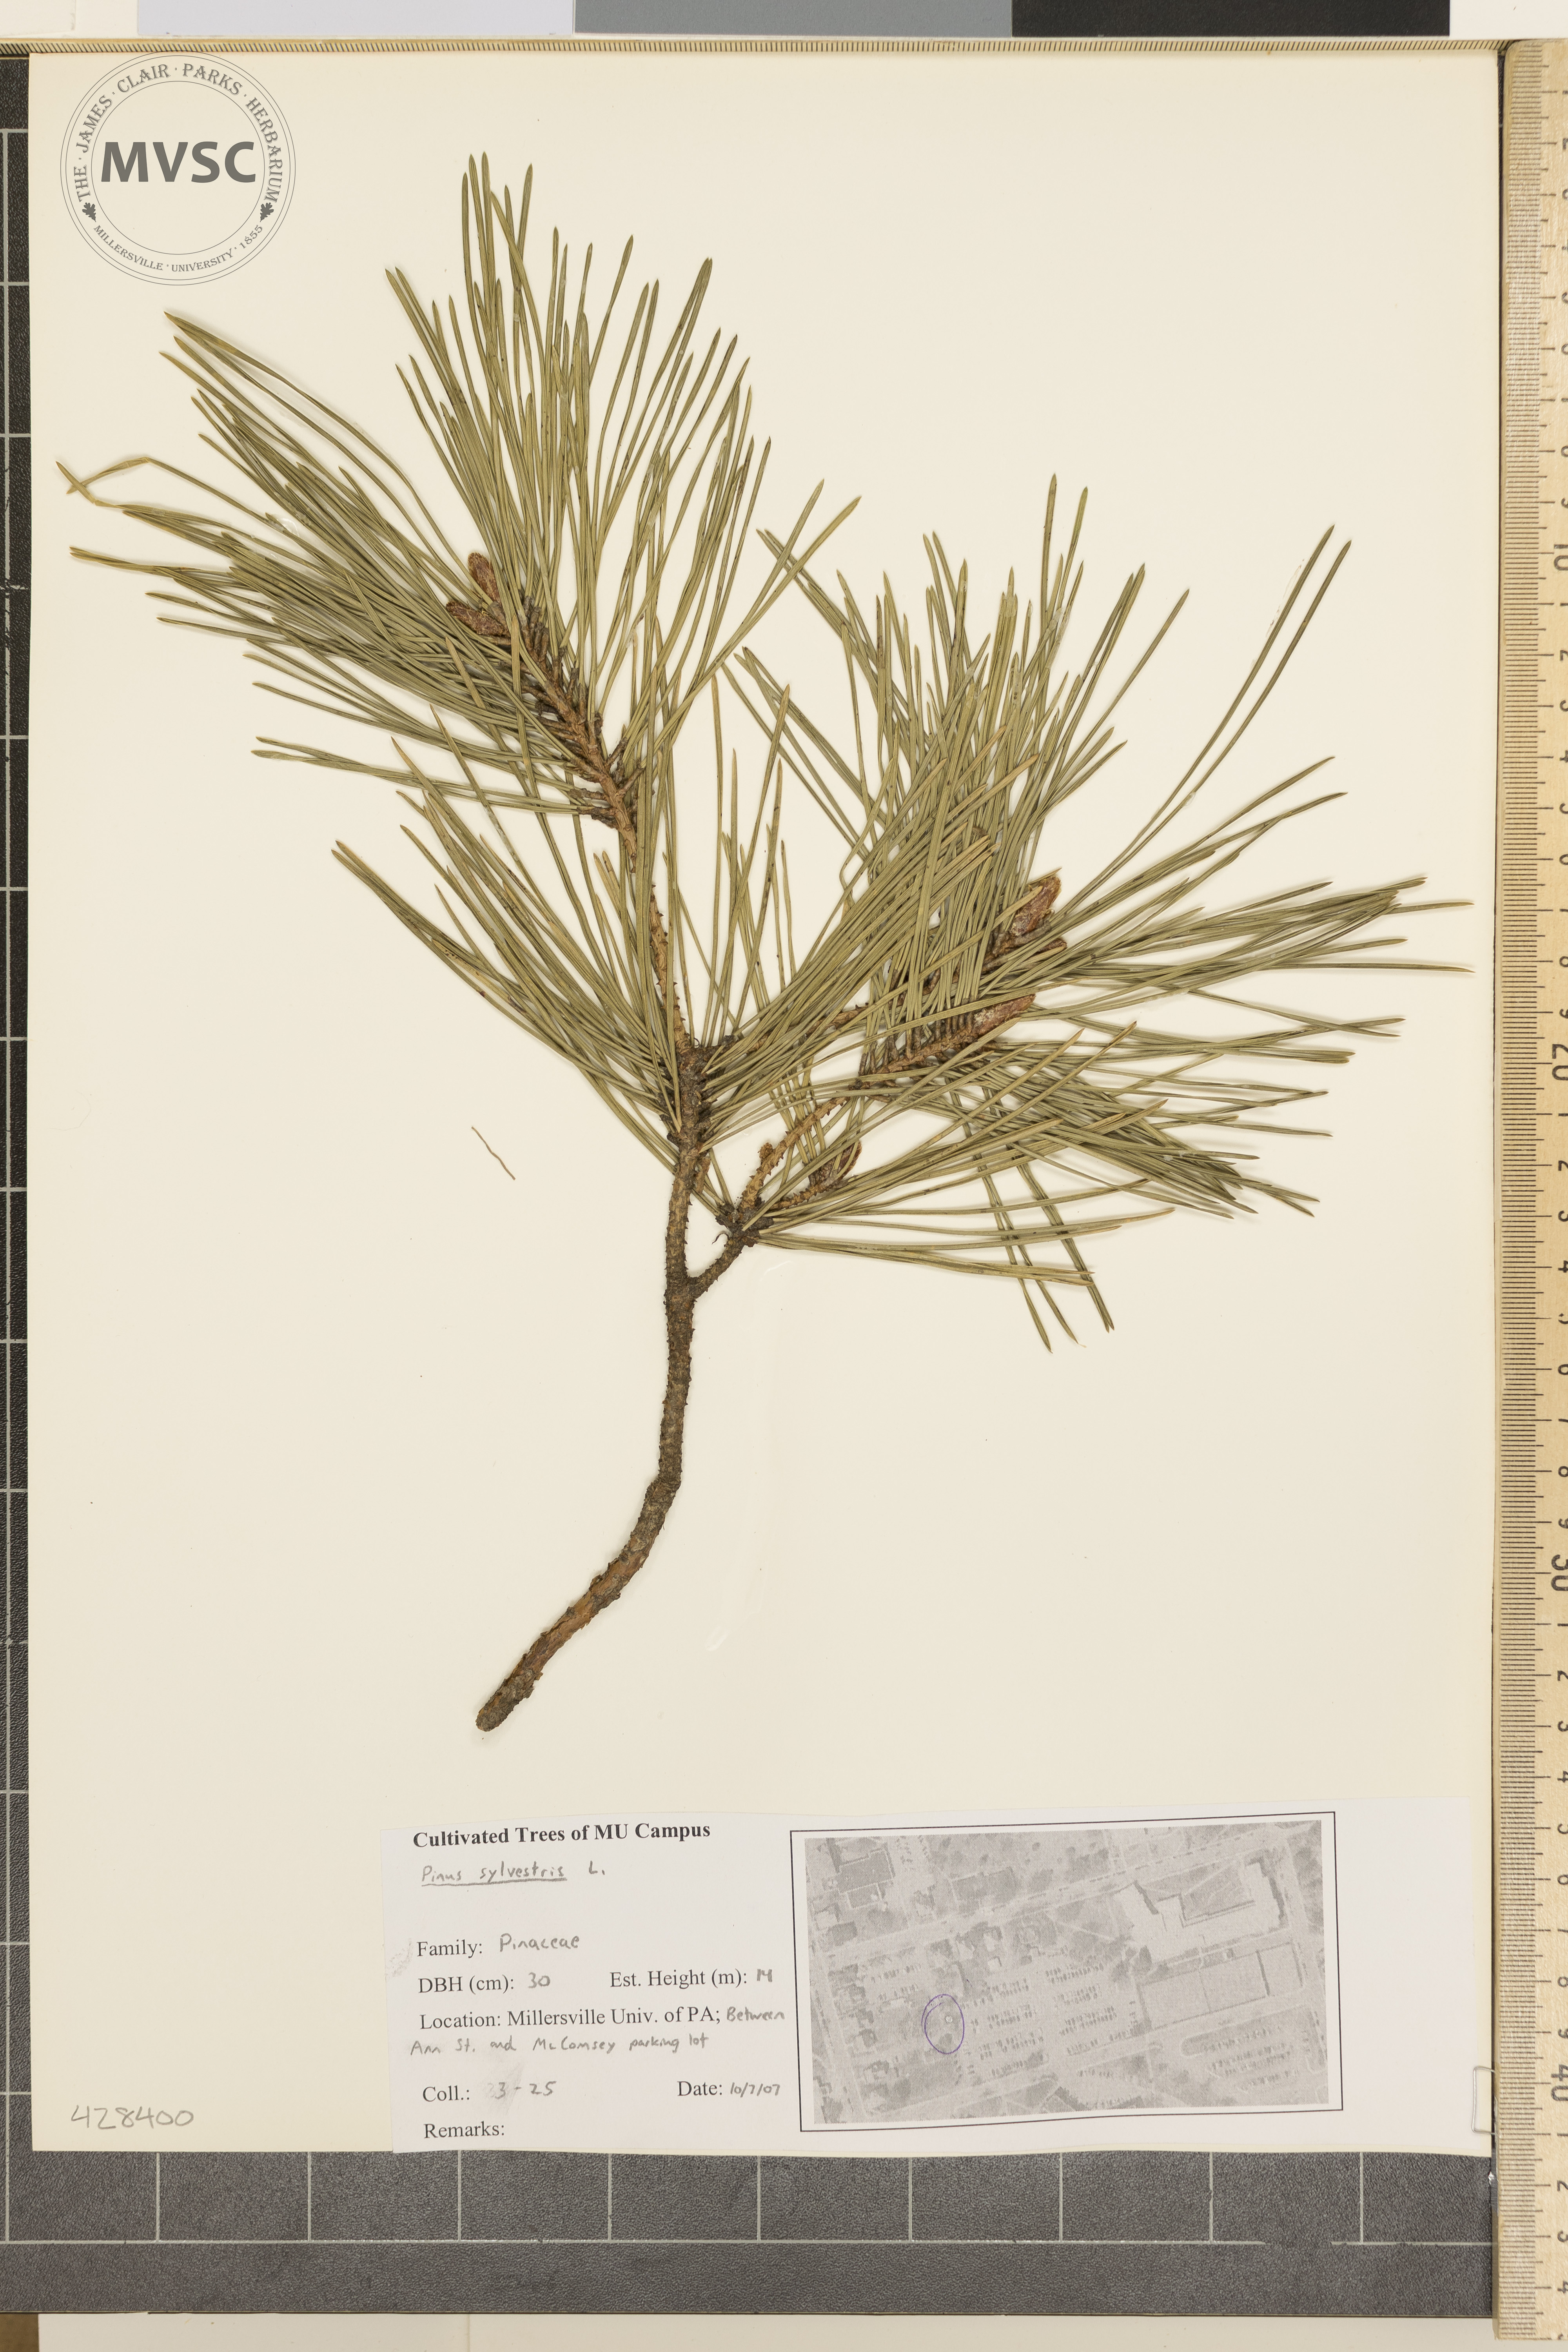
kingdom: Plantae
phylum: Tracheophyta
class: Pinopsida
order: Pinales
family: Pinaceae
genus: Pinus
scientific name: Pinus sylvestris
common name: Scots pine
